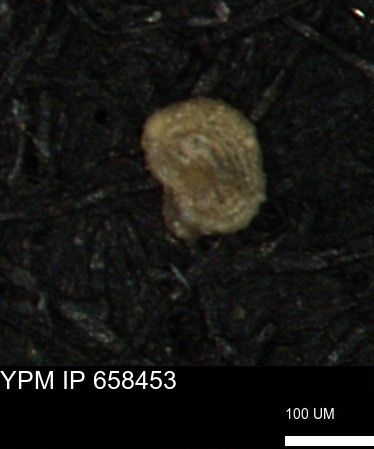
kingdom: Chromista
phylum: Foraminifera
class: Globothalamea
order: Lituolida
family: Rzehakinidae
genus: Spirolocammina
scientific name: Spirolocammina planula
